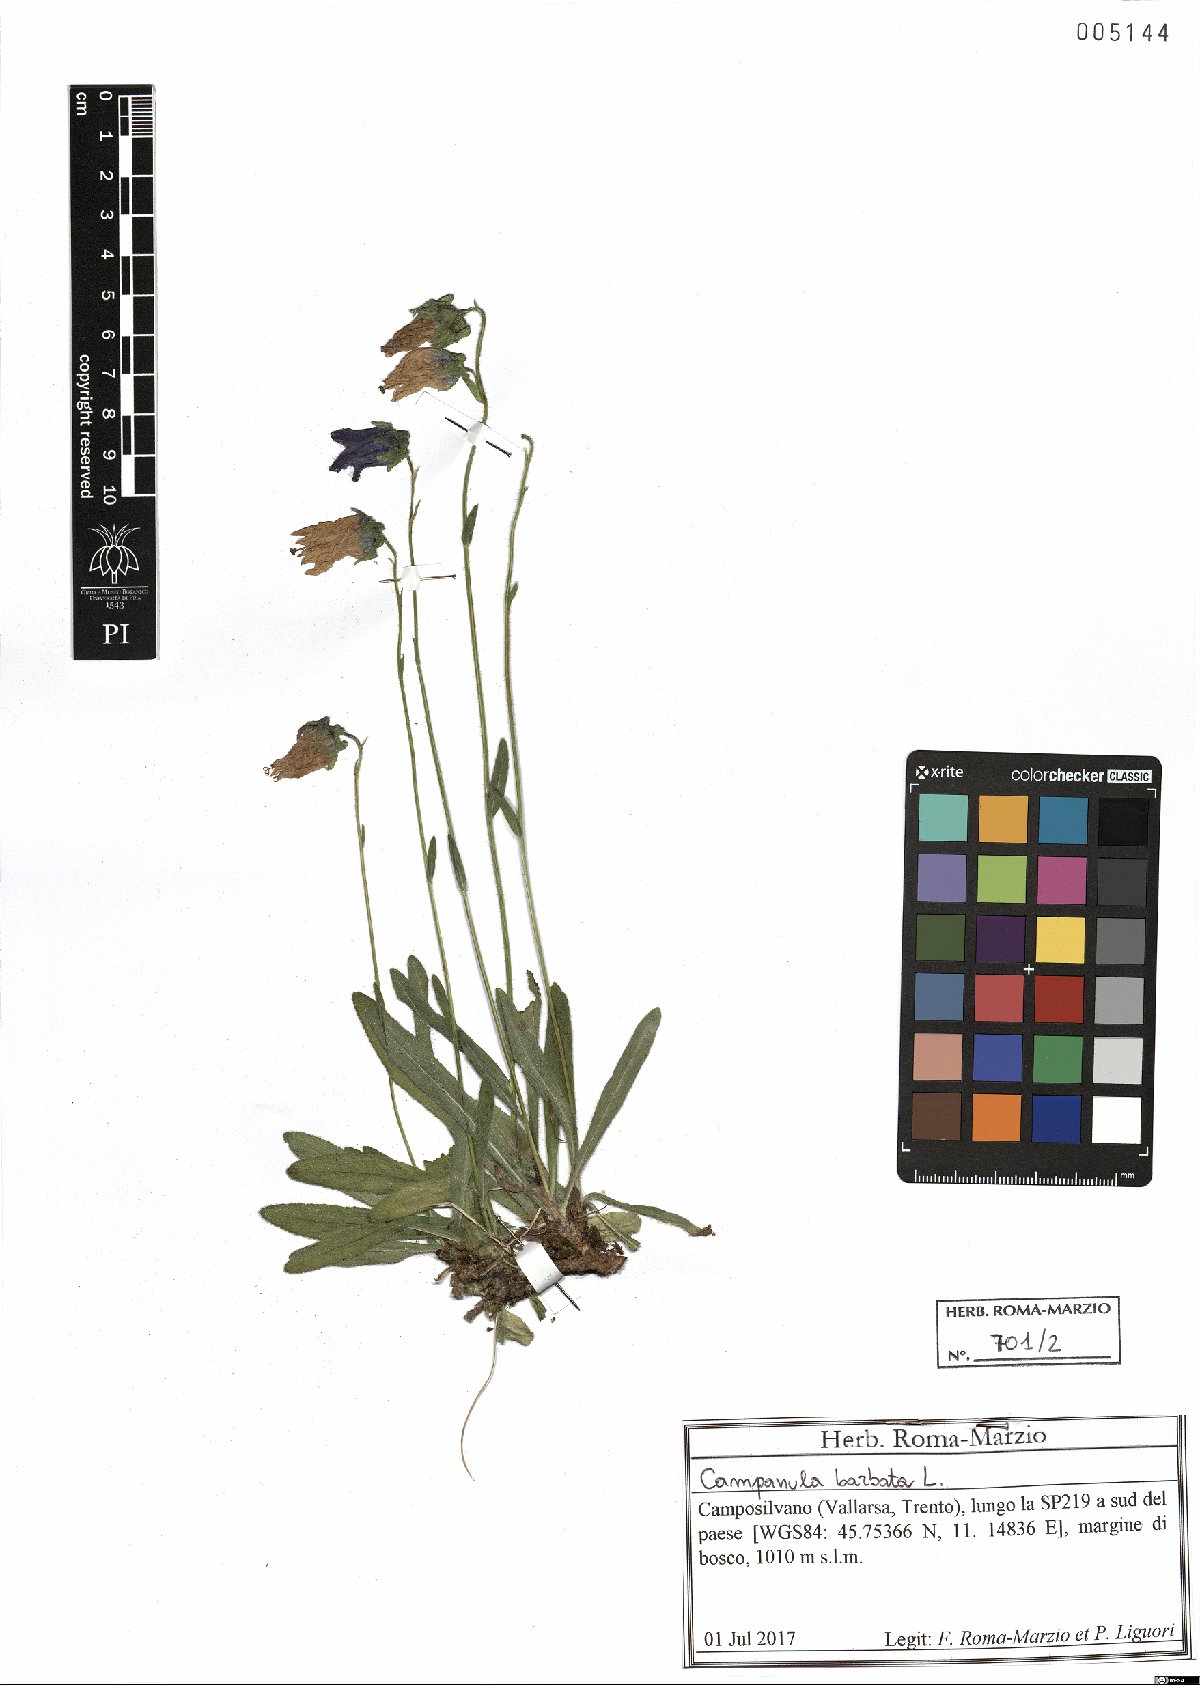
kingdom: Plantae
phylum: Tracheophyta
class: Magnoliopsida
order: Asterales
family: Campanulaceae
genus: Campanula
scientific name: Campanula barbata
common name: Bearded bellflower
